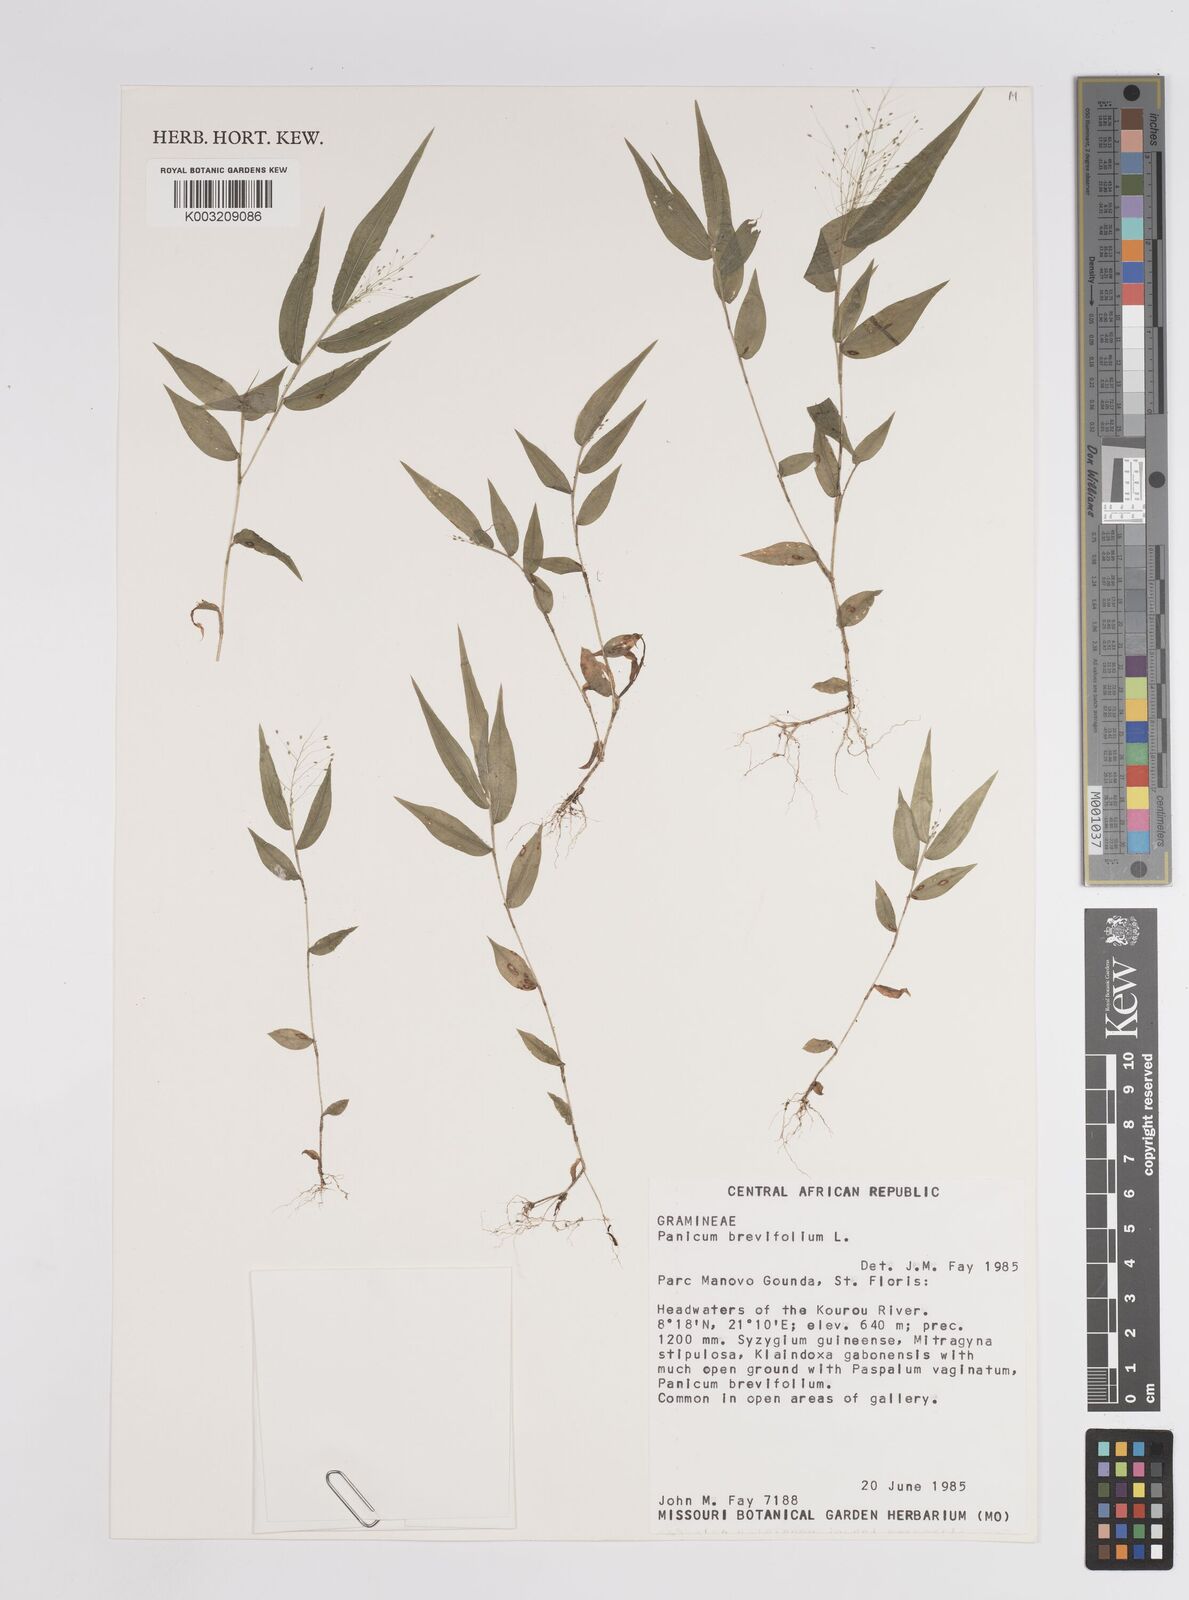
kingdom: Plantae
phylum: Tracheophyta
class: Liliopsida
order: Poales
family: Poaceae
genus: Panicum
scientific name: Panicum brevifolium
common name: Shortleaf panic grass
